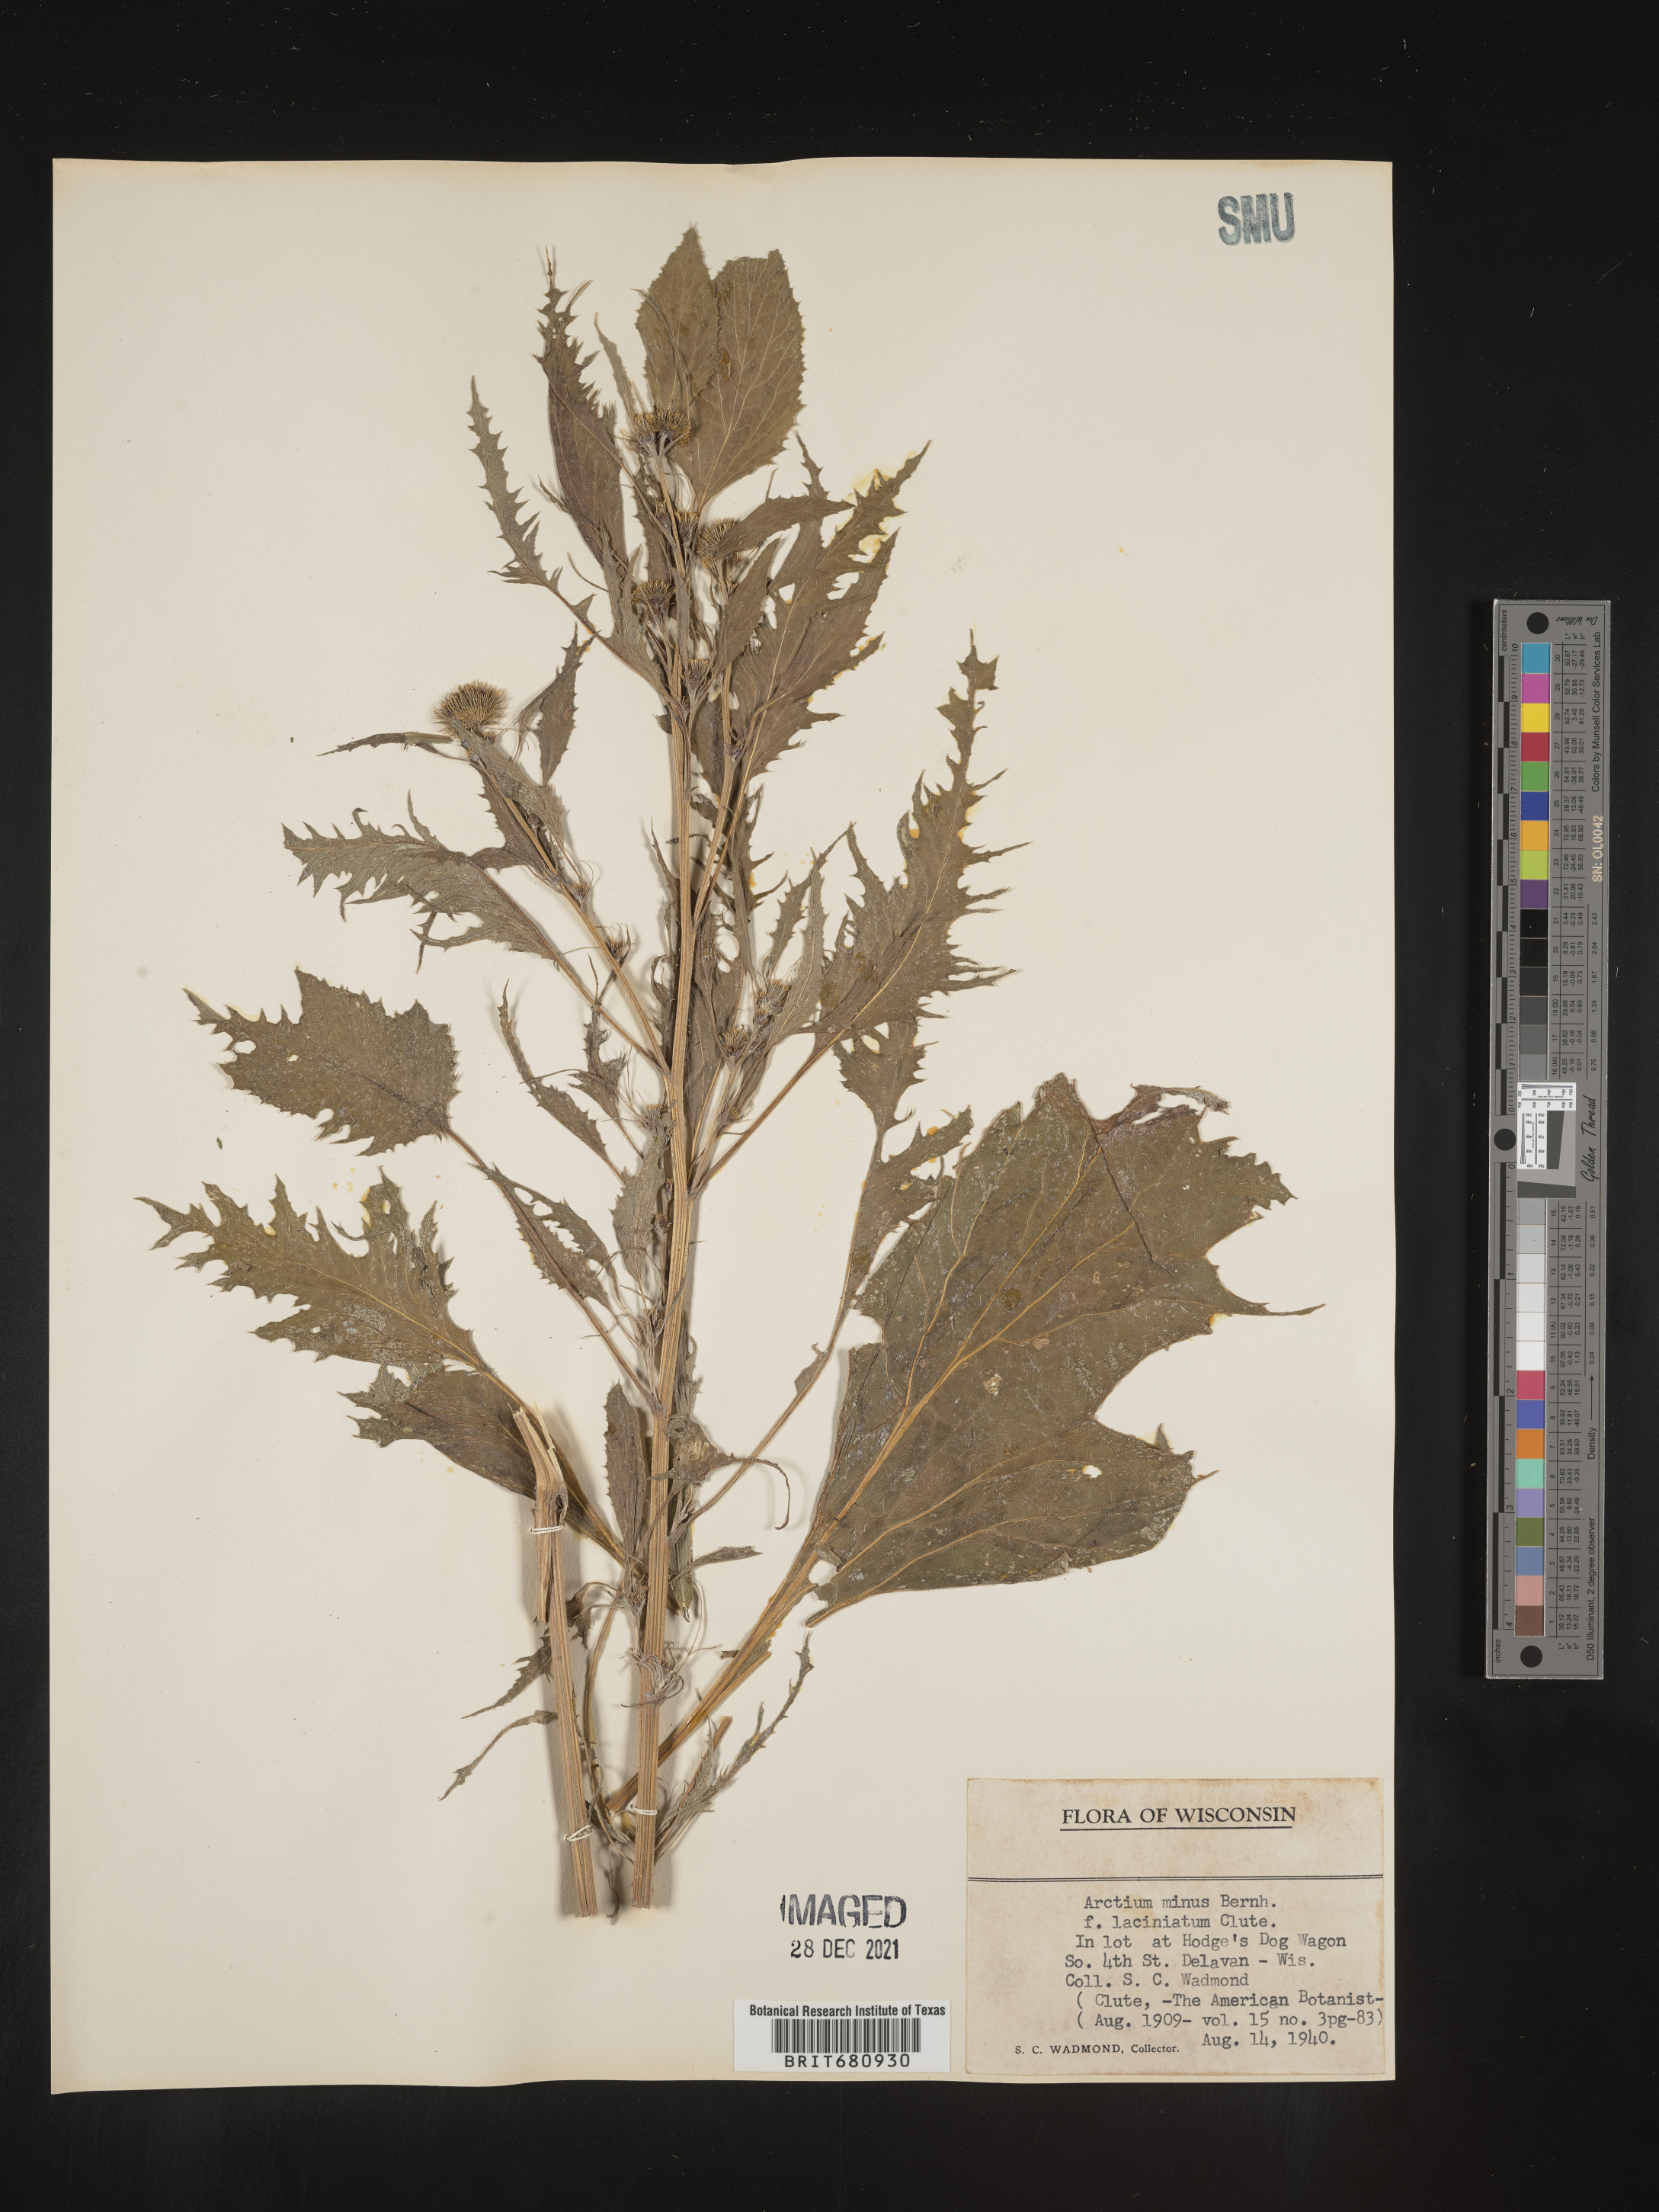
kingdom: Plantae
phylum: Tracheophyta
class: Magnoliopsida
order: Asterales
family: Asteraceae
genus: Arctium
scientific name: Arctium minus
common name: Lesser burdock
